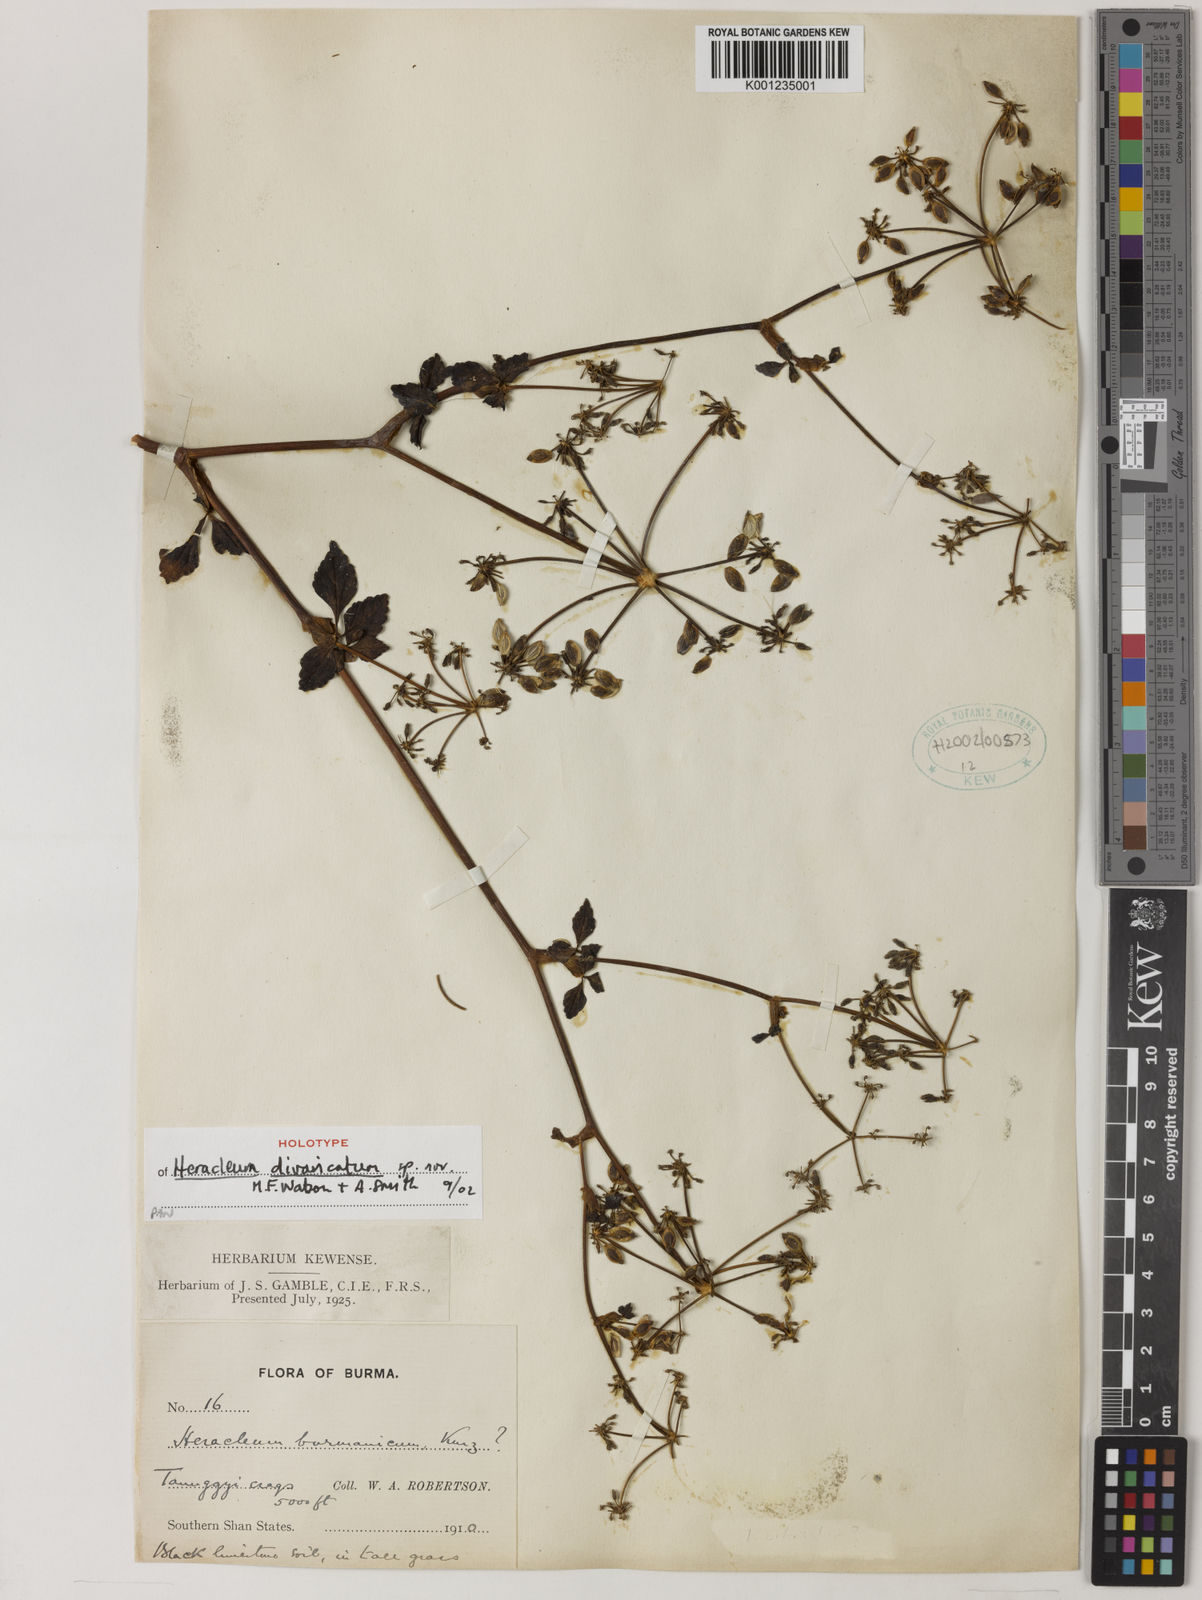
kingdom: Plantae
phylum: Tracheophyta
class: Magnoliopsida
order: Apiales
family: Apiaceae
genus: Tetrataenium
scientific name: Tetrataenium birmanicum
